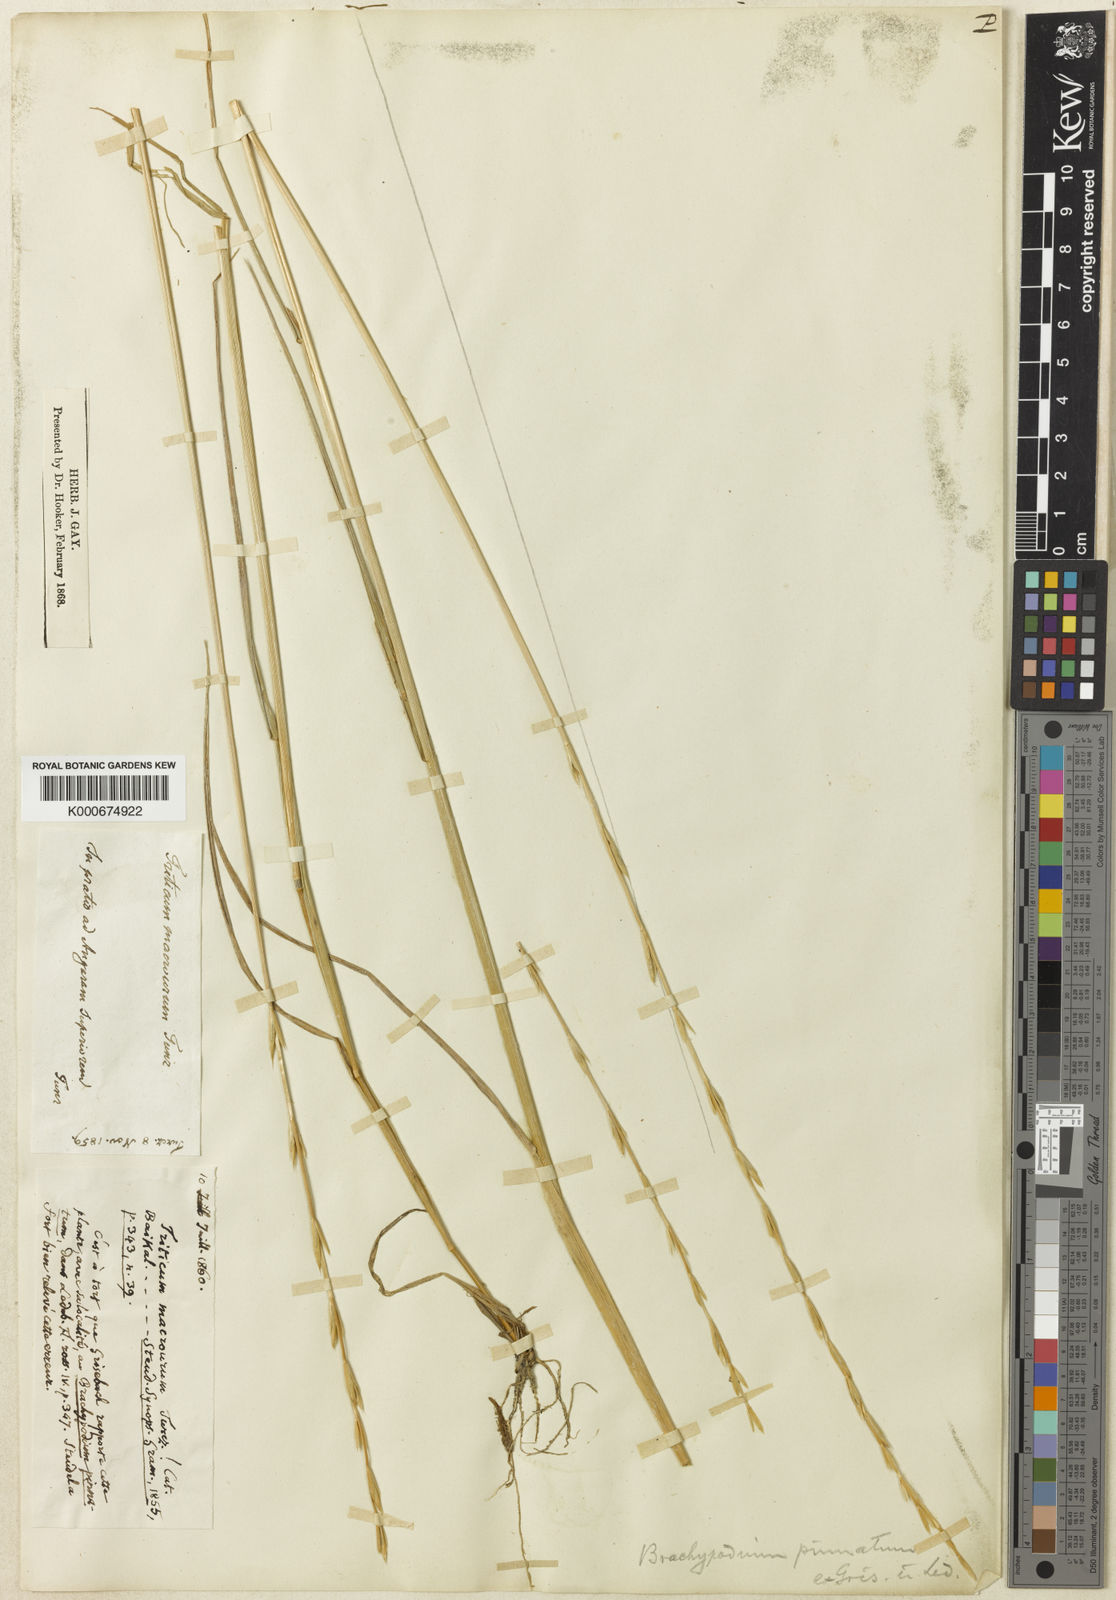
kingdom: Plantae
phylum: Tracheophyta
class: Liliopsida
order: Poales
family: Poaceae
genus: Elymus
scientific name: Elymus macrourus
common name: Northern wheatgrass
